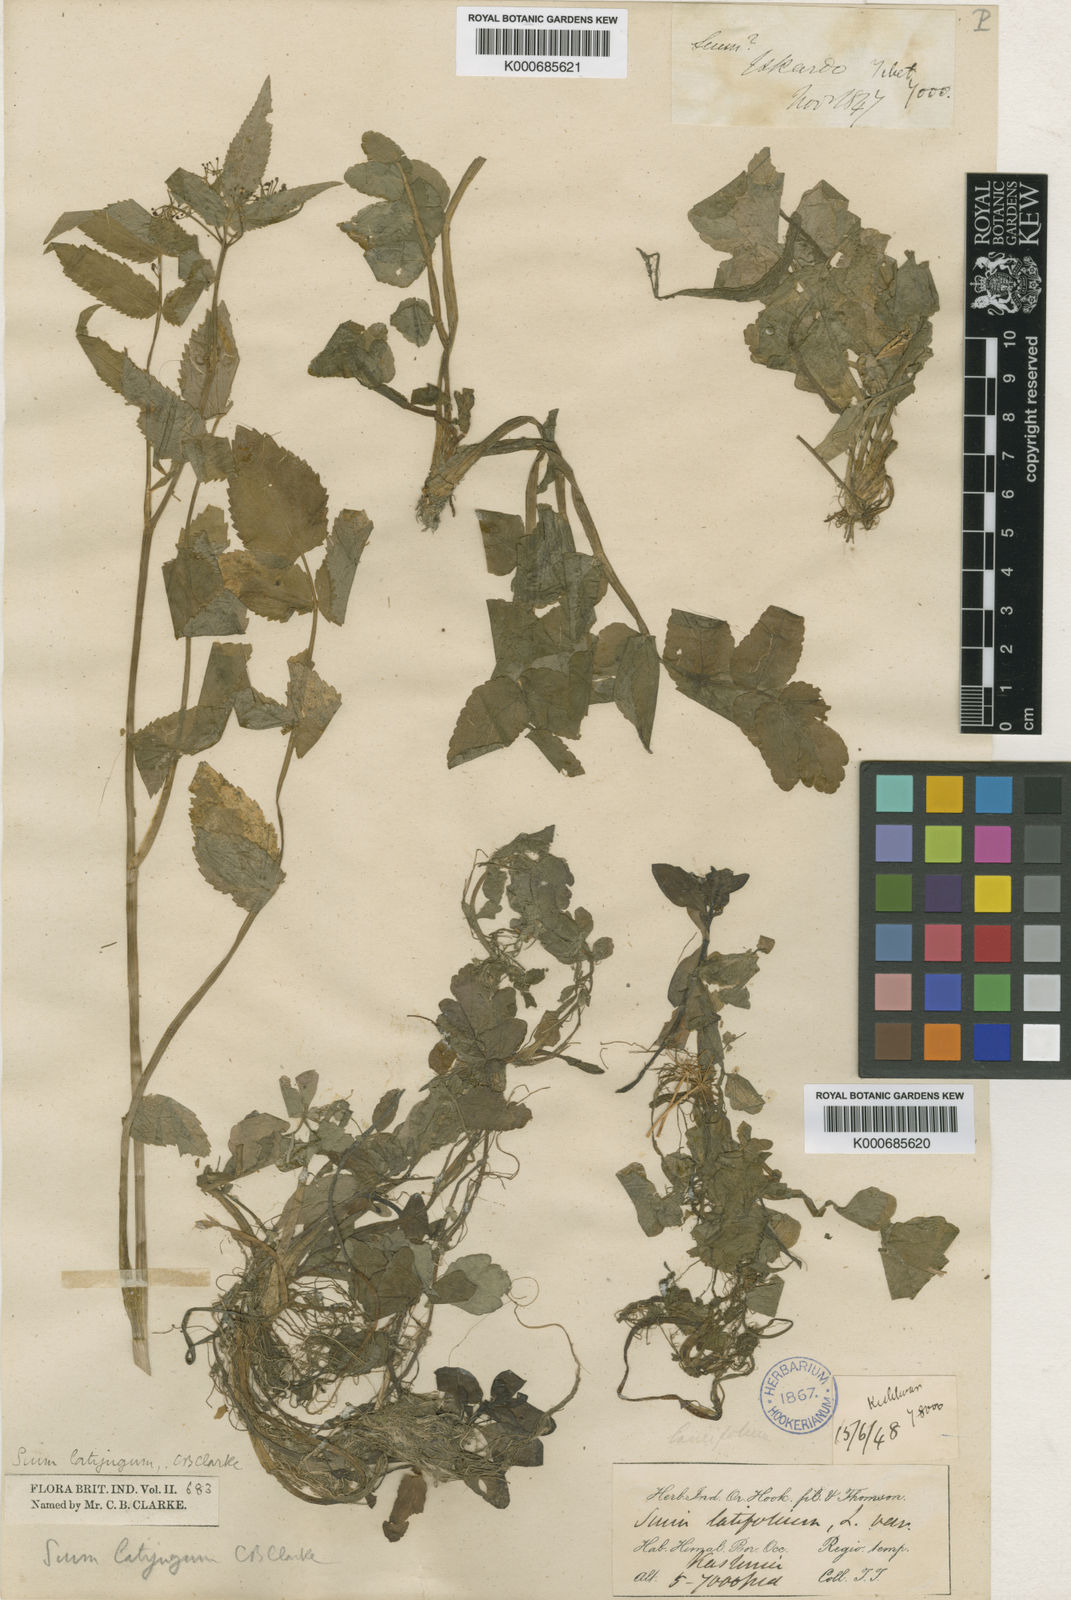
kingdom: Plantae
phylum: Tracheophyta
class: Magnoliopsida
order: Apiales
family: Apiaceae
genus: Sium
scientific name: Sium sisarum
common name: Skirret
